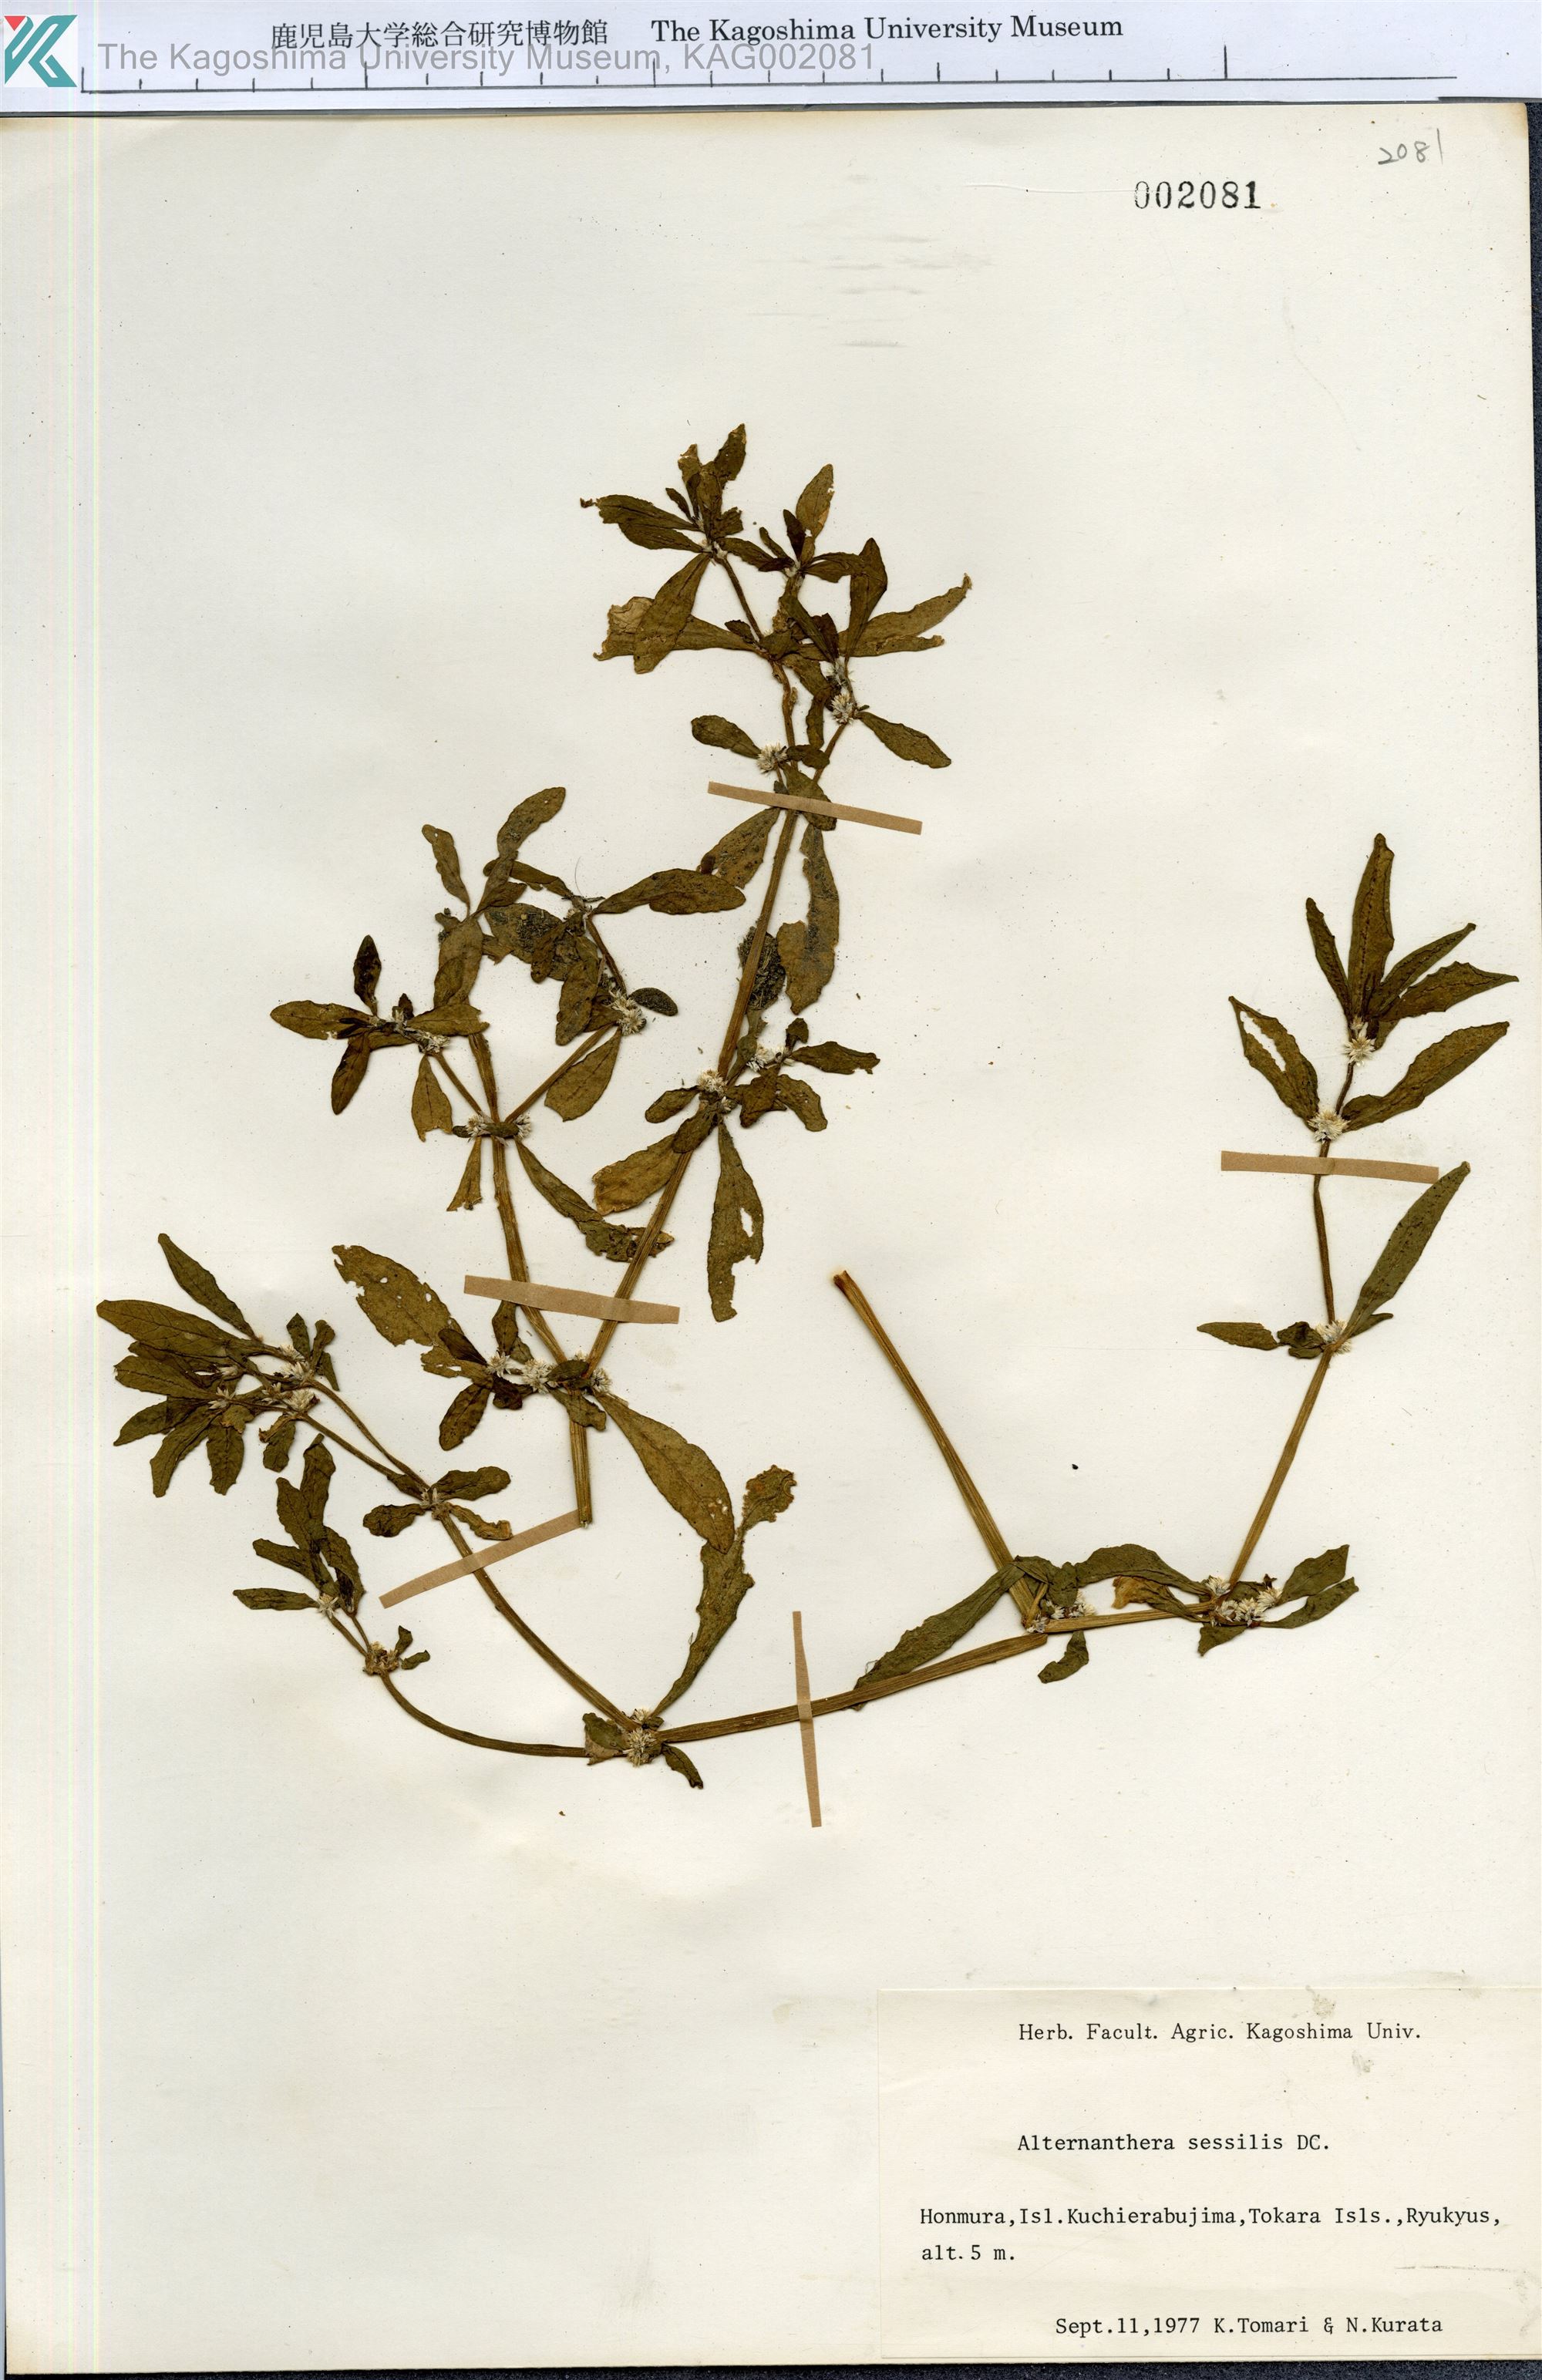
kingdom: Plantae
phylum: Tracheophyta
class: Magnoliopsida
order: Caryophyllales
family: Amaranthaceae
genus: Alternanthera
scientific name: Alternanthera sessilis
